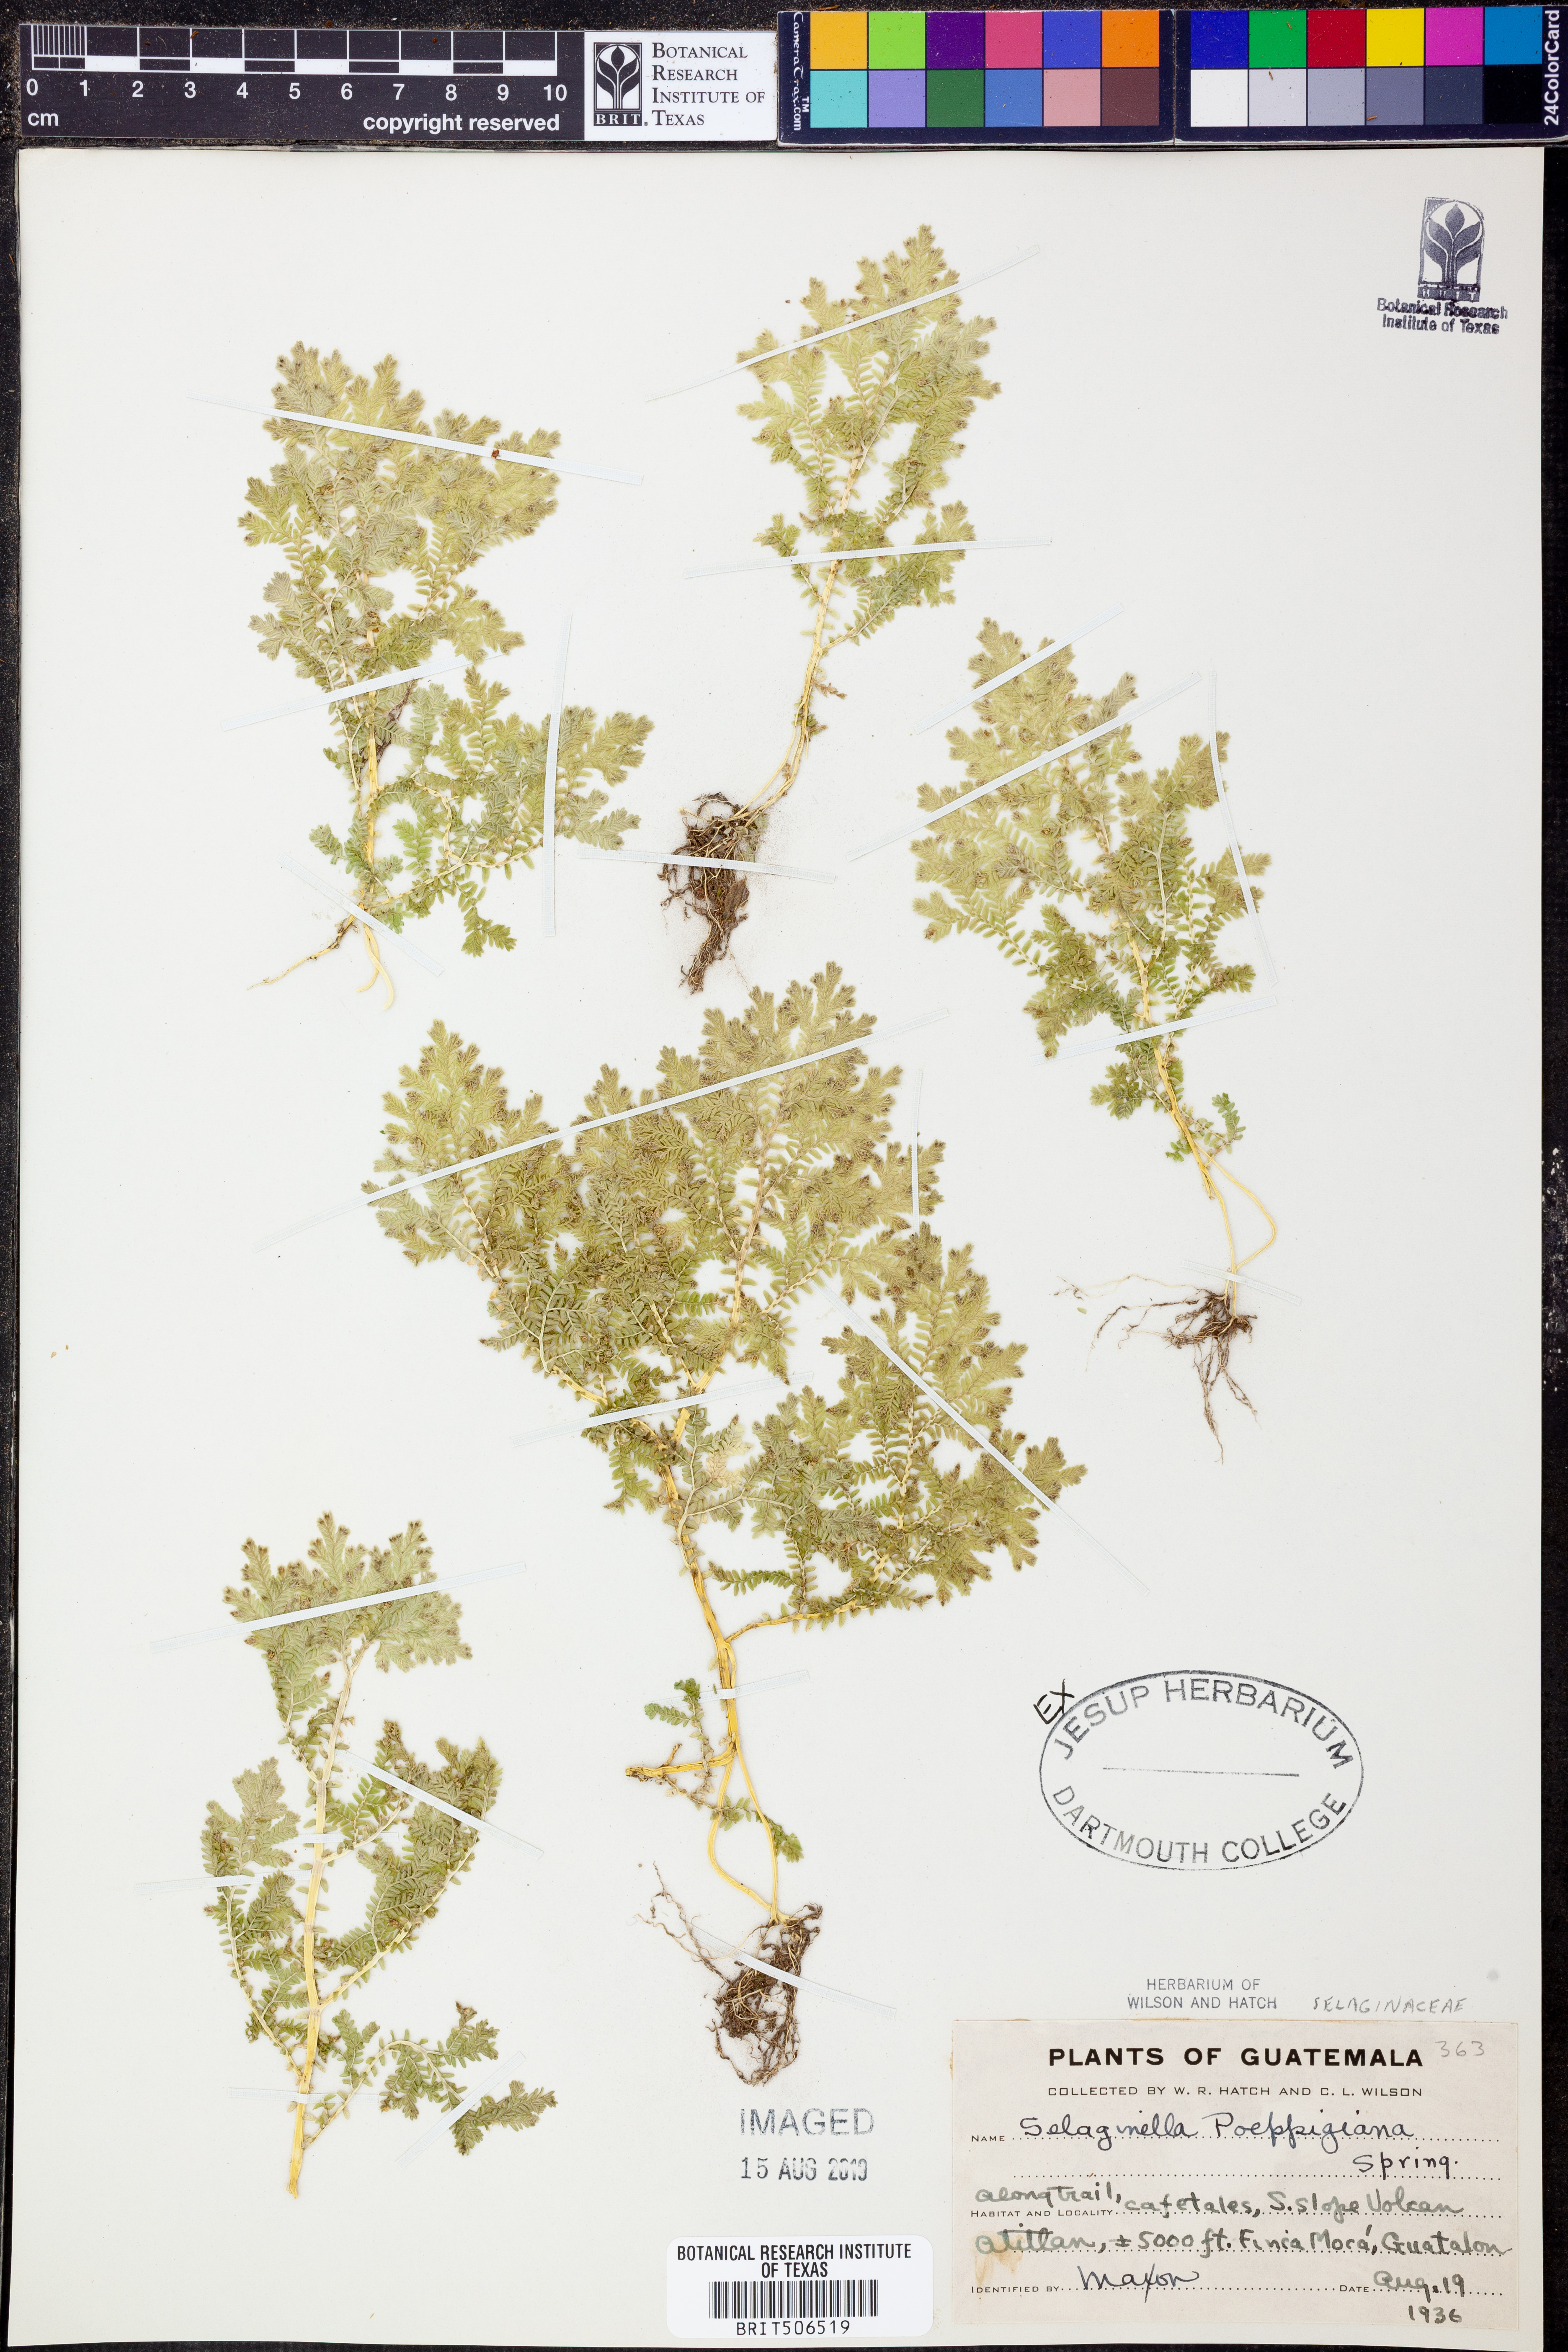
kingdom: Plantae
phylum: Tracheophyta
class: Lycopodiopsida
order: Selaginellales
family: Selaginellaceae
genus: Selaginella
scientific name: Selaginella poeppigiana
